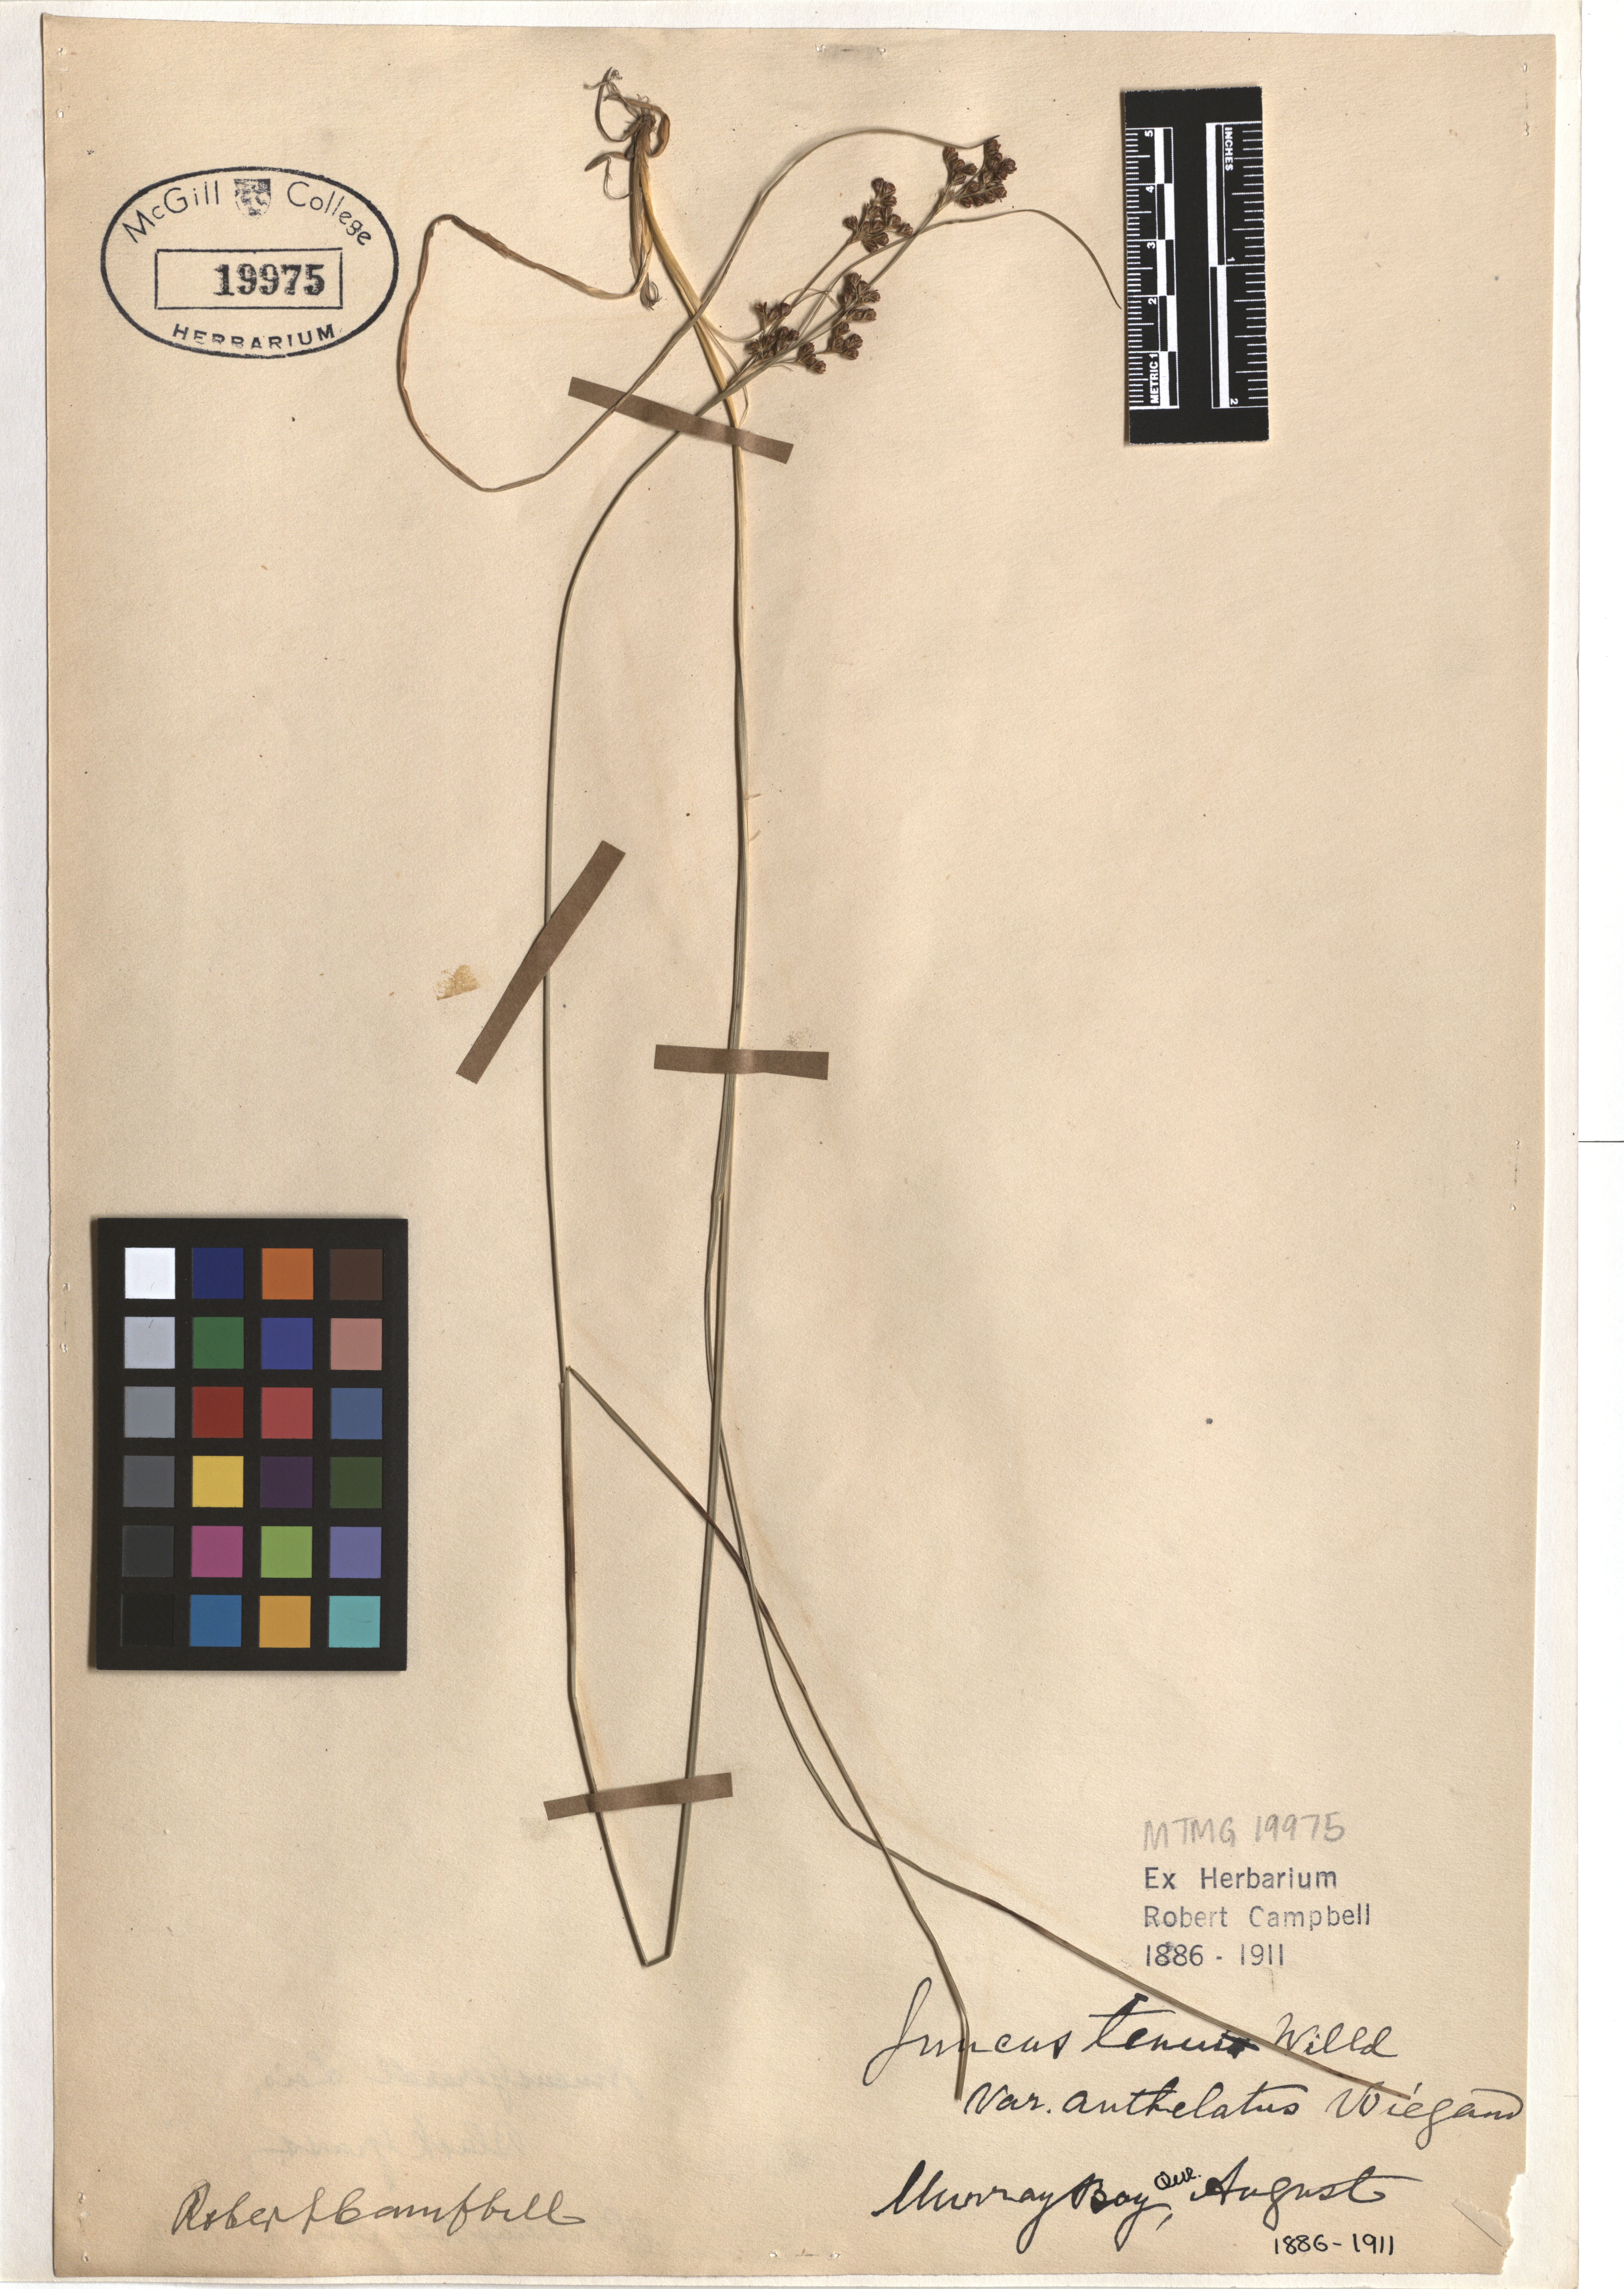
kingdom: Plantae
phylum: Tracheophyta
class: Liliopsida
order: Poales
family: Juncaceae
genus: Juncus
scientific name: Juncus anthelatus
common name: Giant path rush
